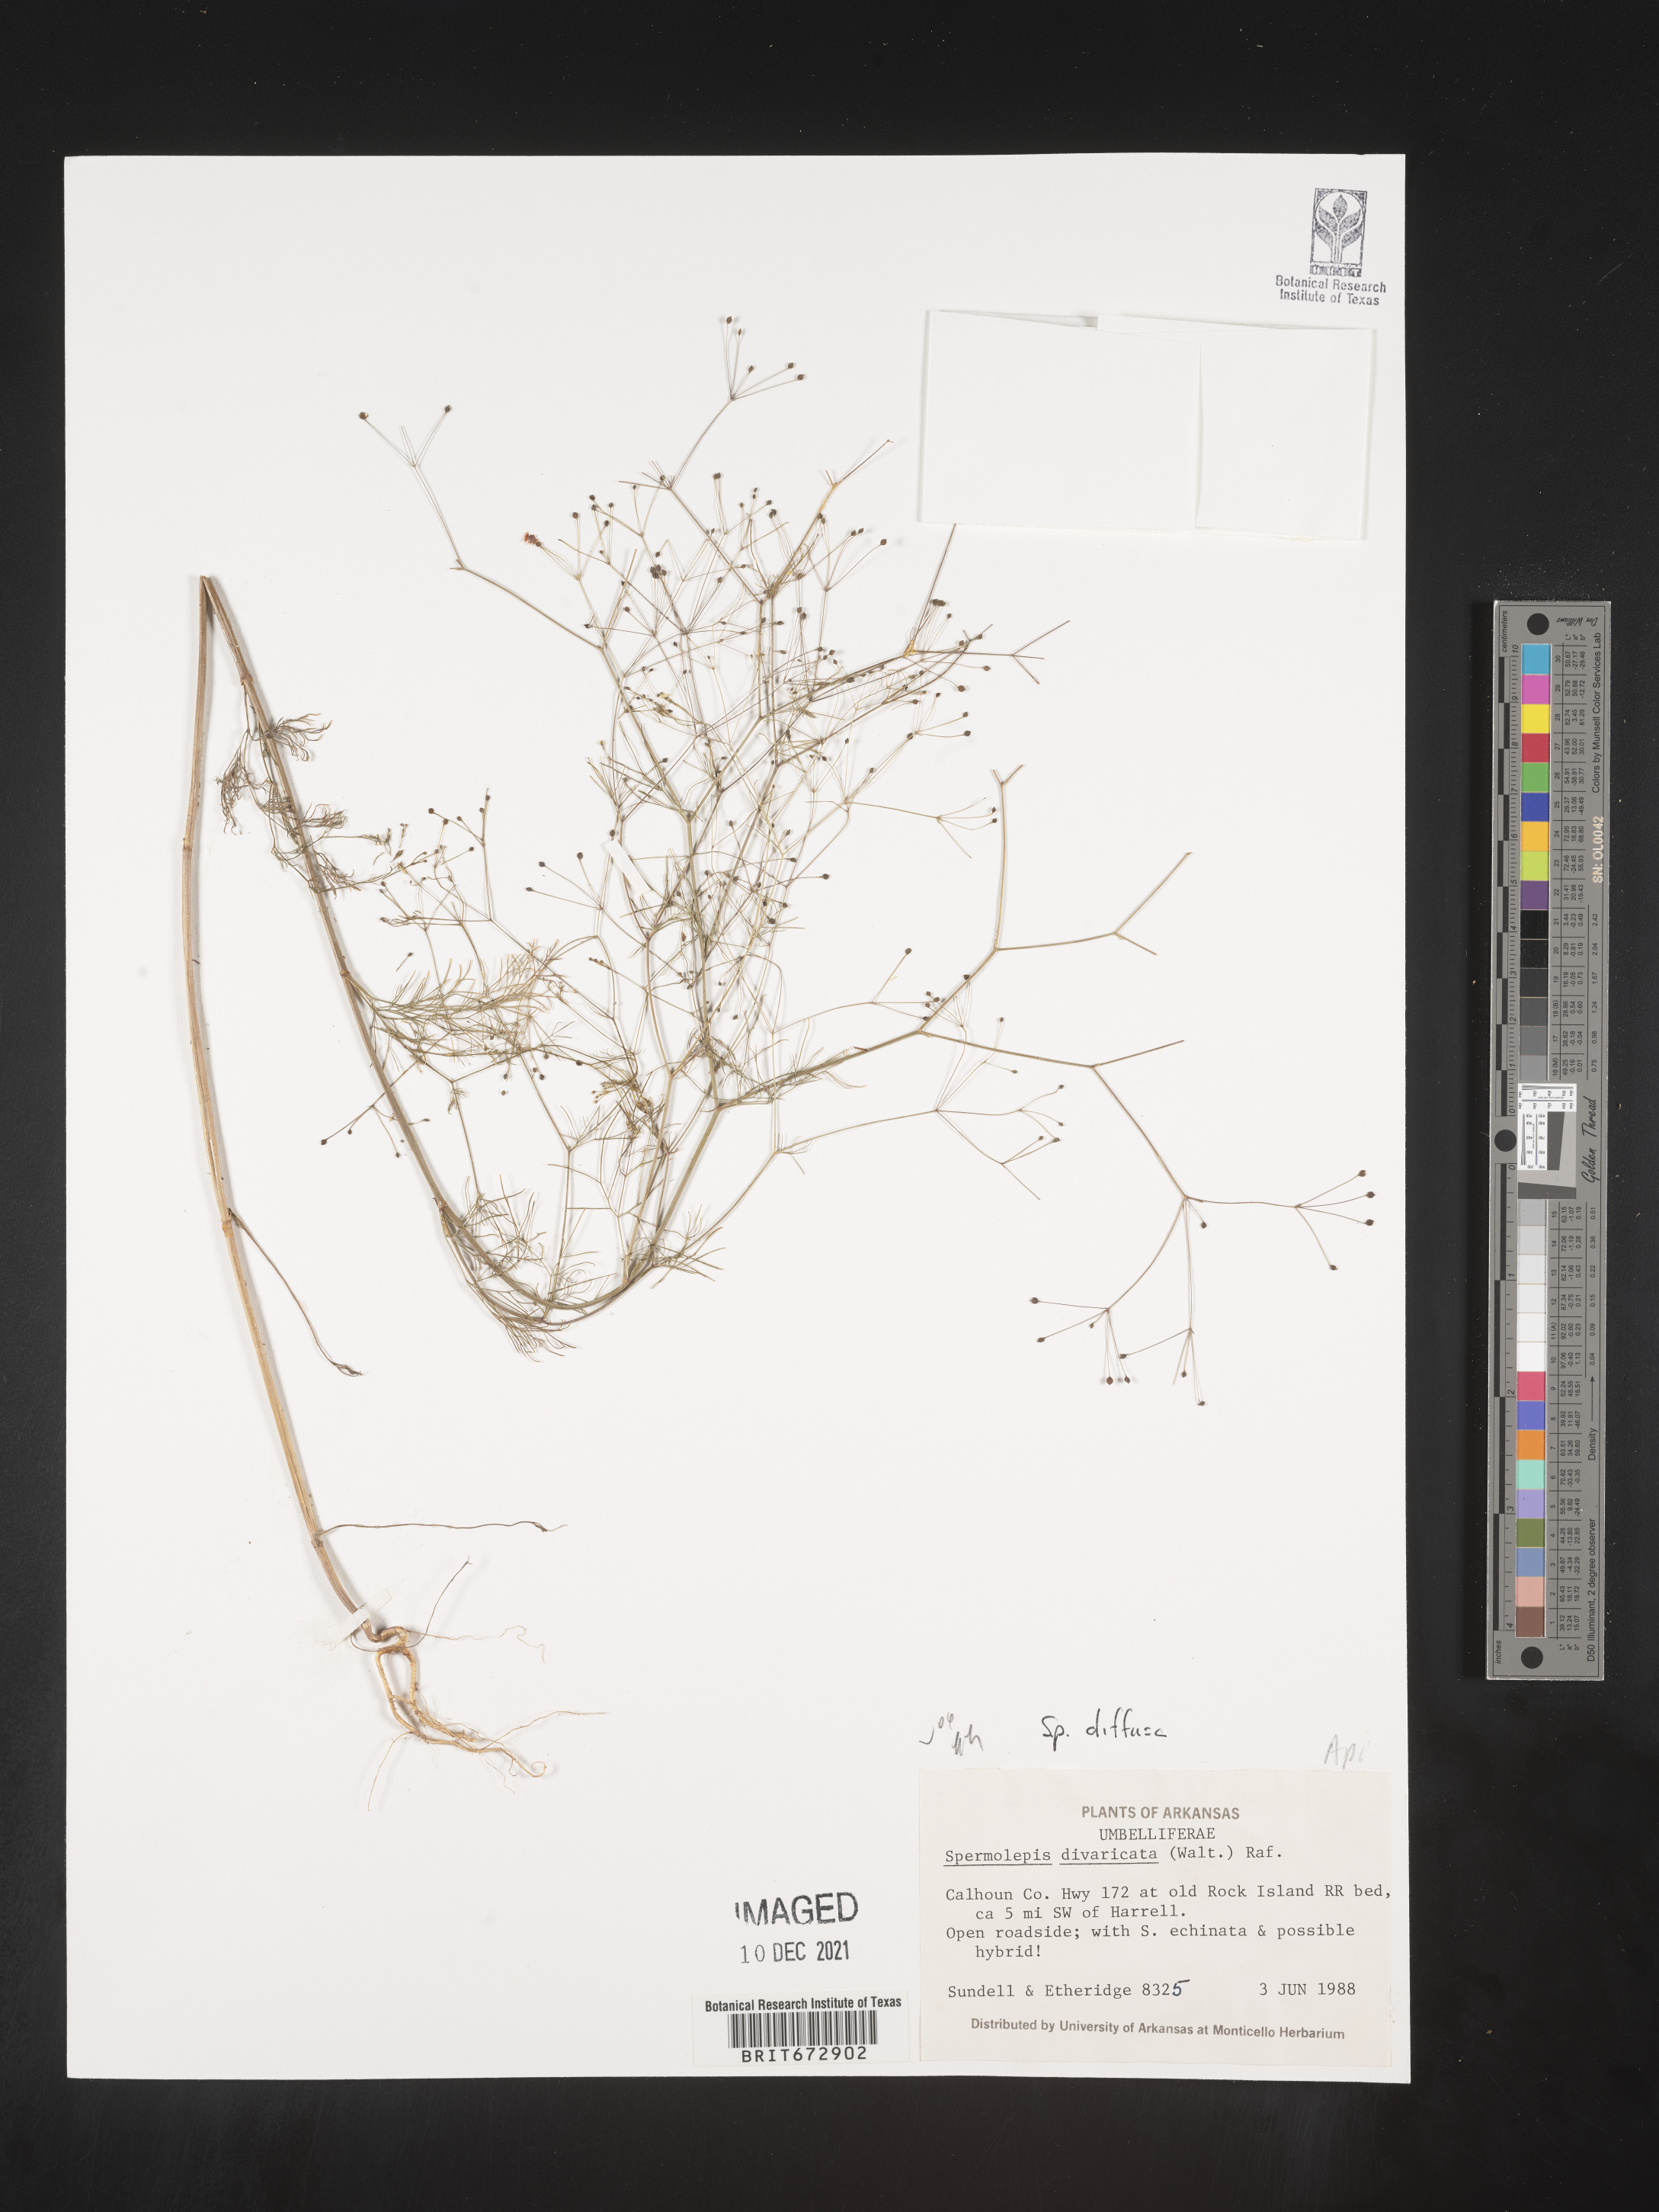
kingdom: Plantae
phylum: Tracheophyta
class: Magnoliopsida
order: Apiales
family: Apiaceae
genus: Spermolepis
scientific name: Spermolepis diffusa
